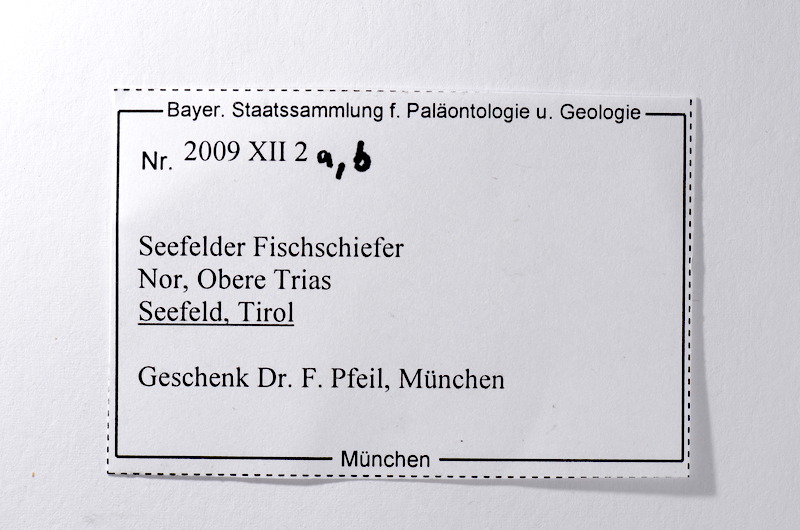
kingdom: Animalia
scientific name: Animalia
